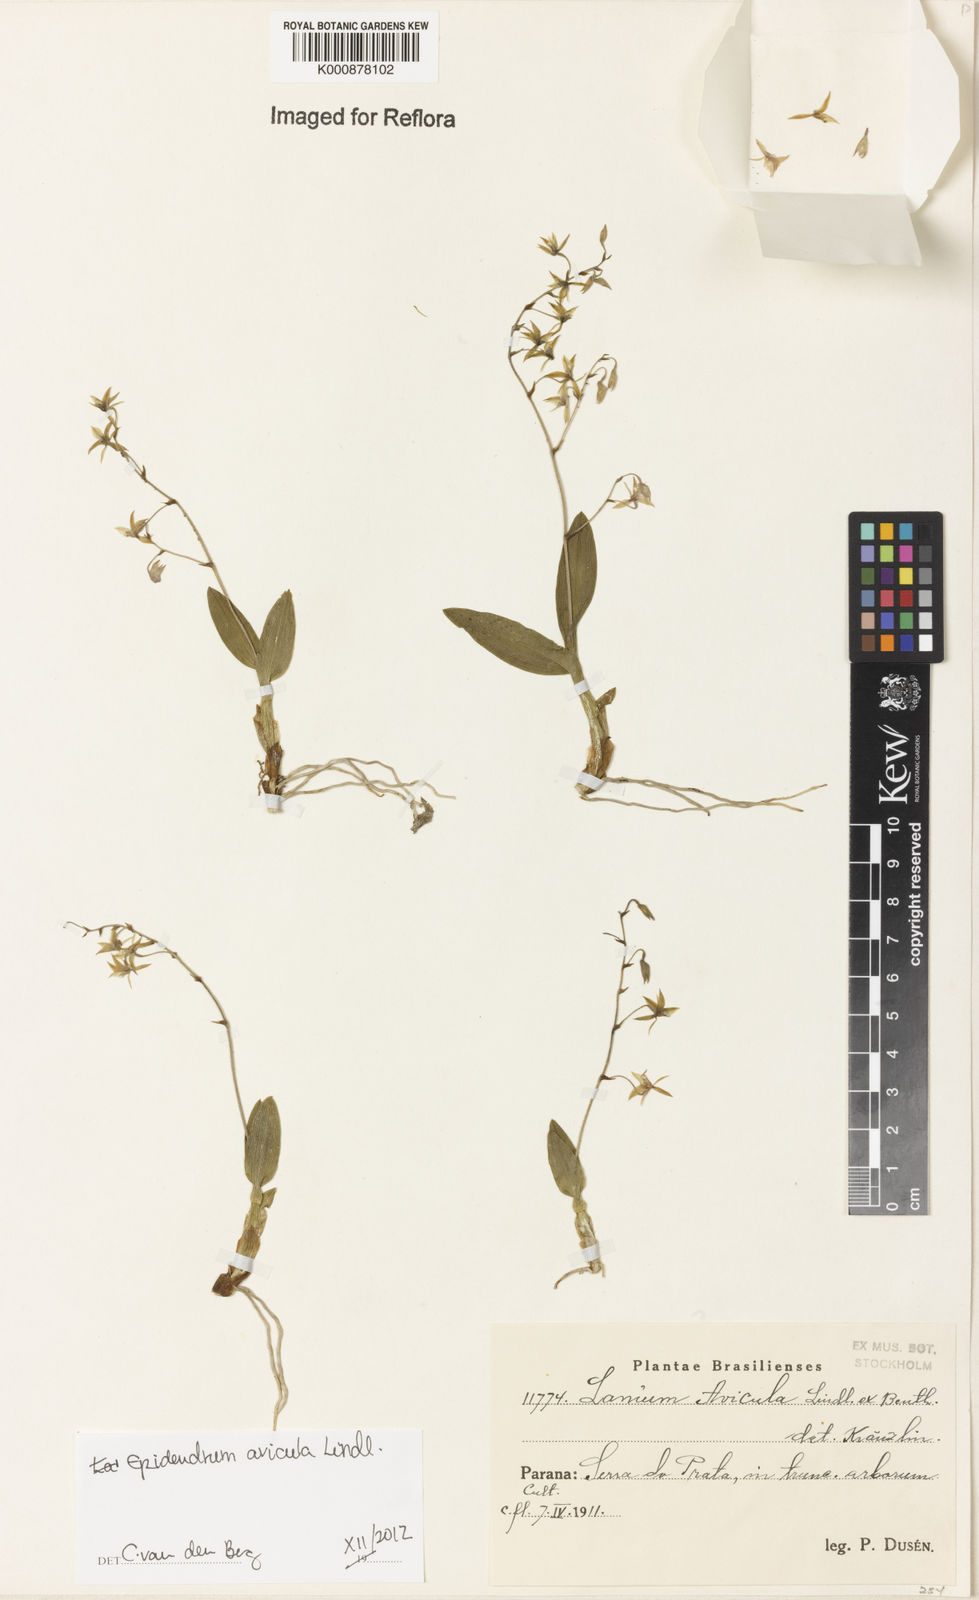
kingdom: Plantae
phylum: Tracheophyta
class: Liliopsida
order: Asparagales
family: Orchidaceae
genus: Epidendrum
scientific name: Epidendrum avicula
